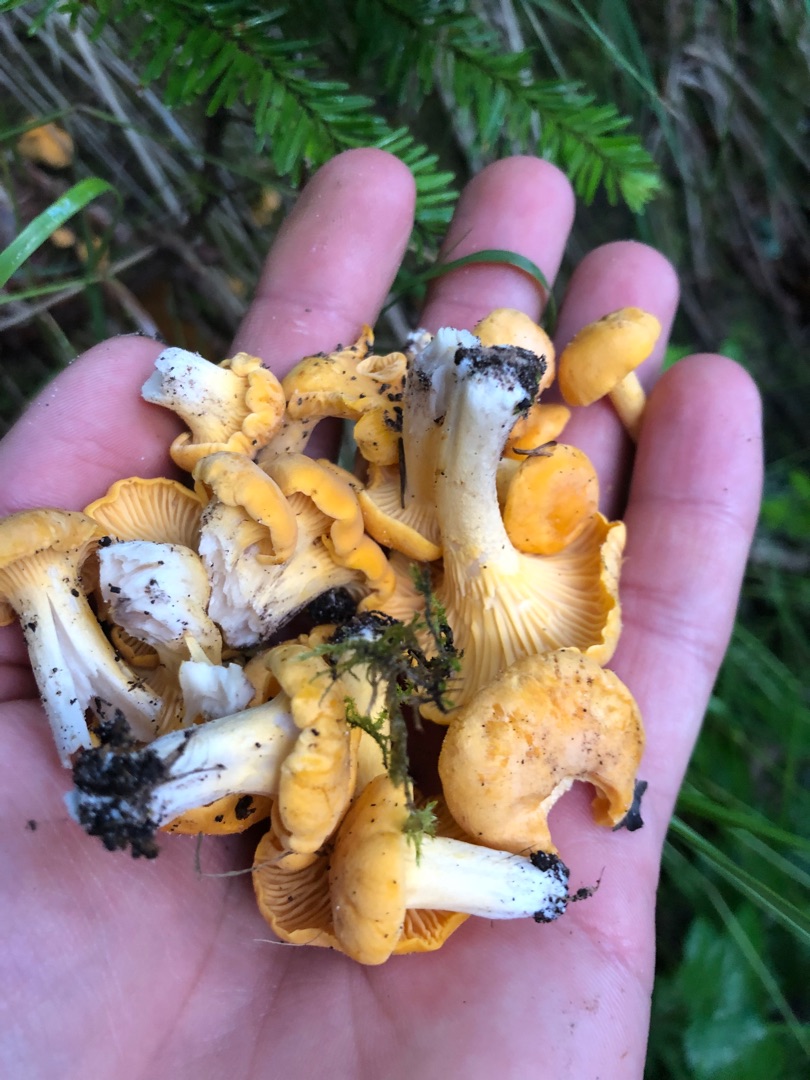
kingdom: Fungi
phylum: Basidiomycota
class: Agaricomycetes
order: Cantharellales
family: Hydnaceae
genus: Cantharellus
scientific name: Cantharellus cibarius
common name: Almindelig kantarel
